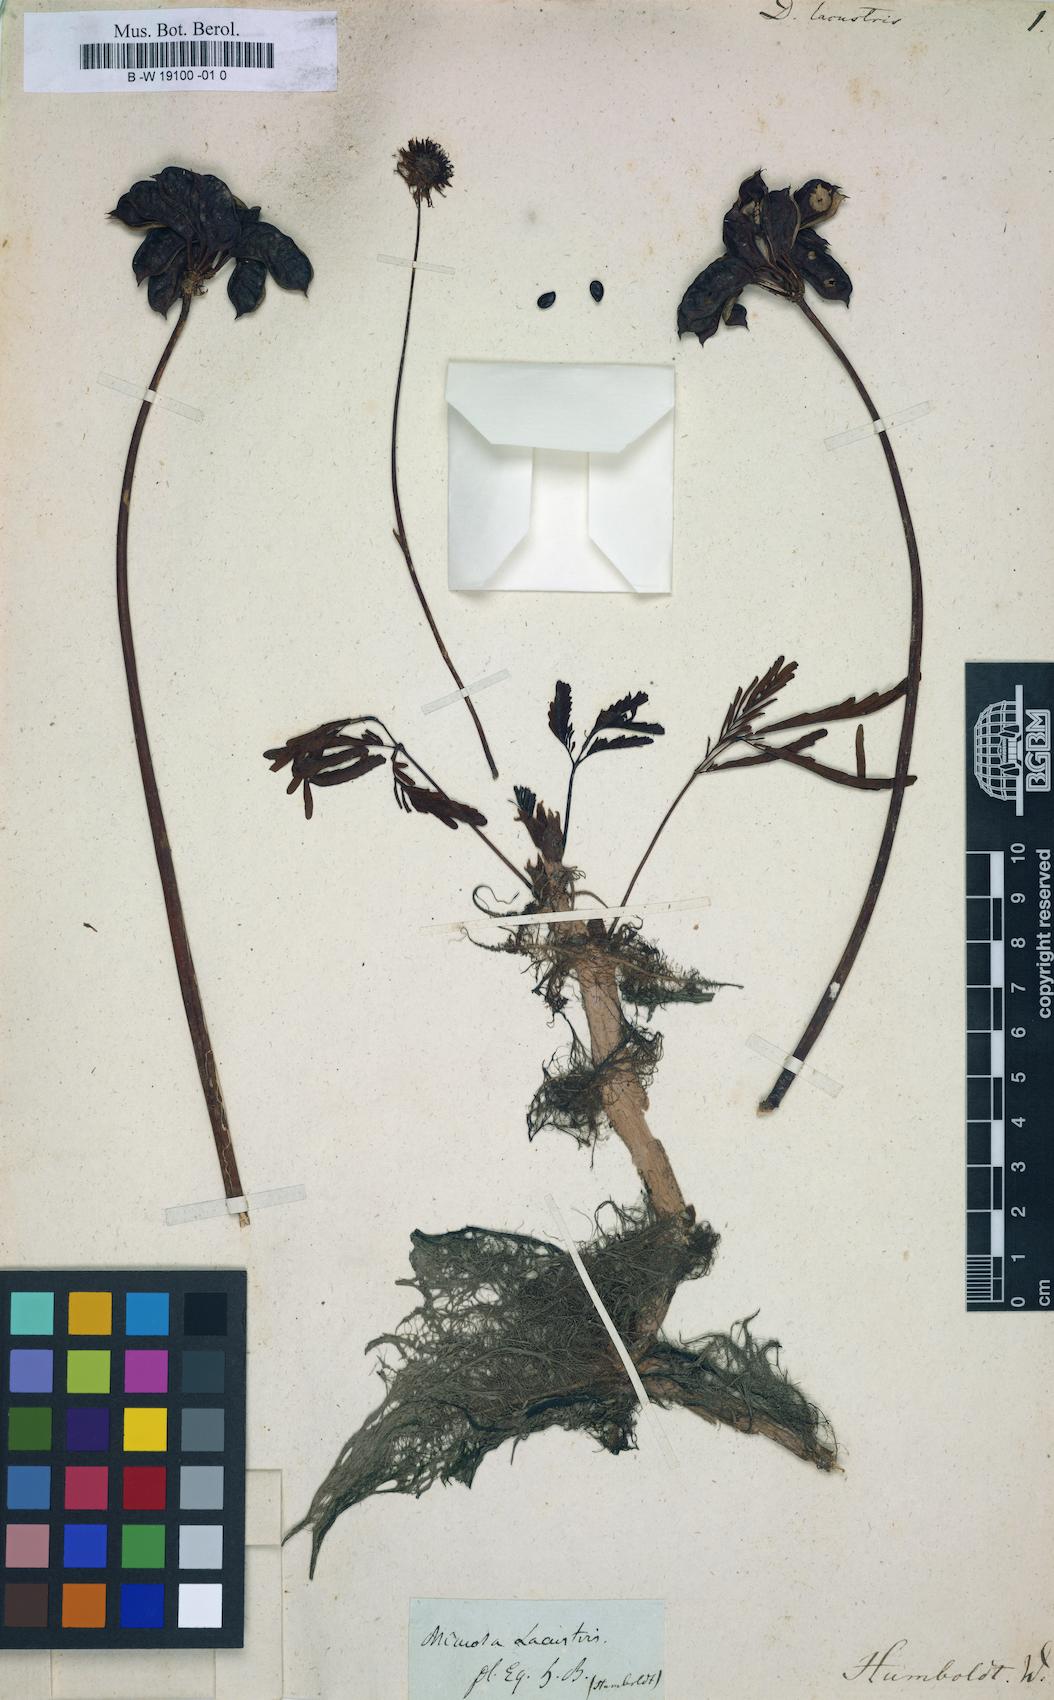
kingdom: Plantae
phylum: Tracheophyta
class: Magnoliopsida
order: Fabales
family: Fabaceae
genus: Neptunia
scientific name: Neptunia prostrata
